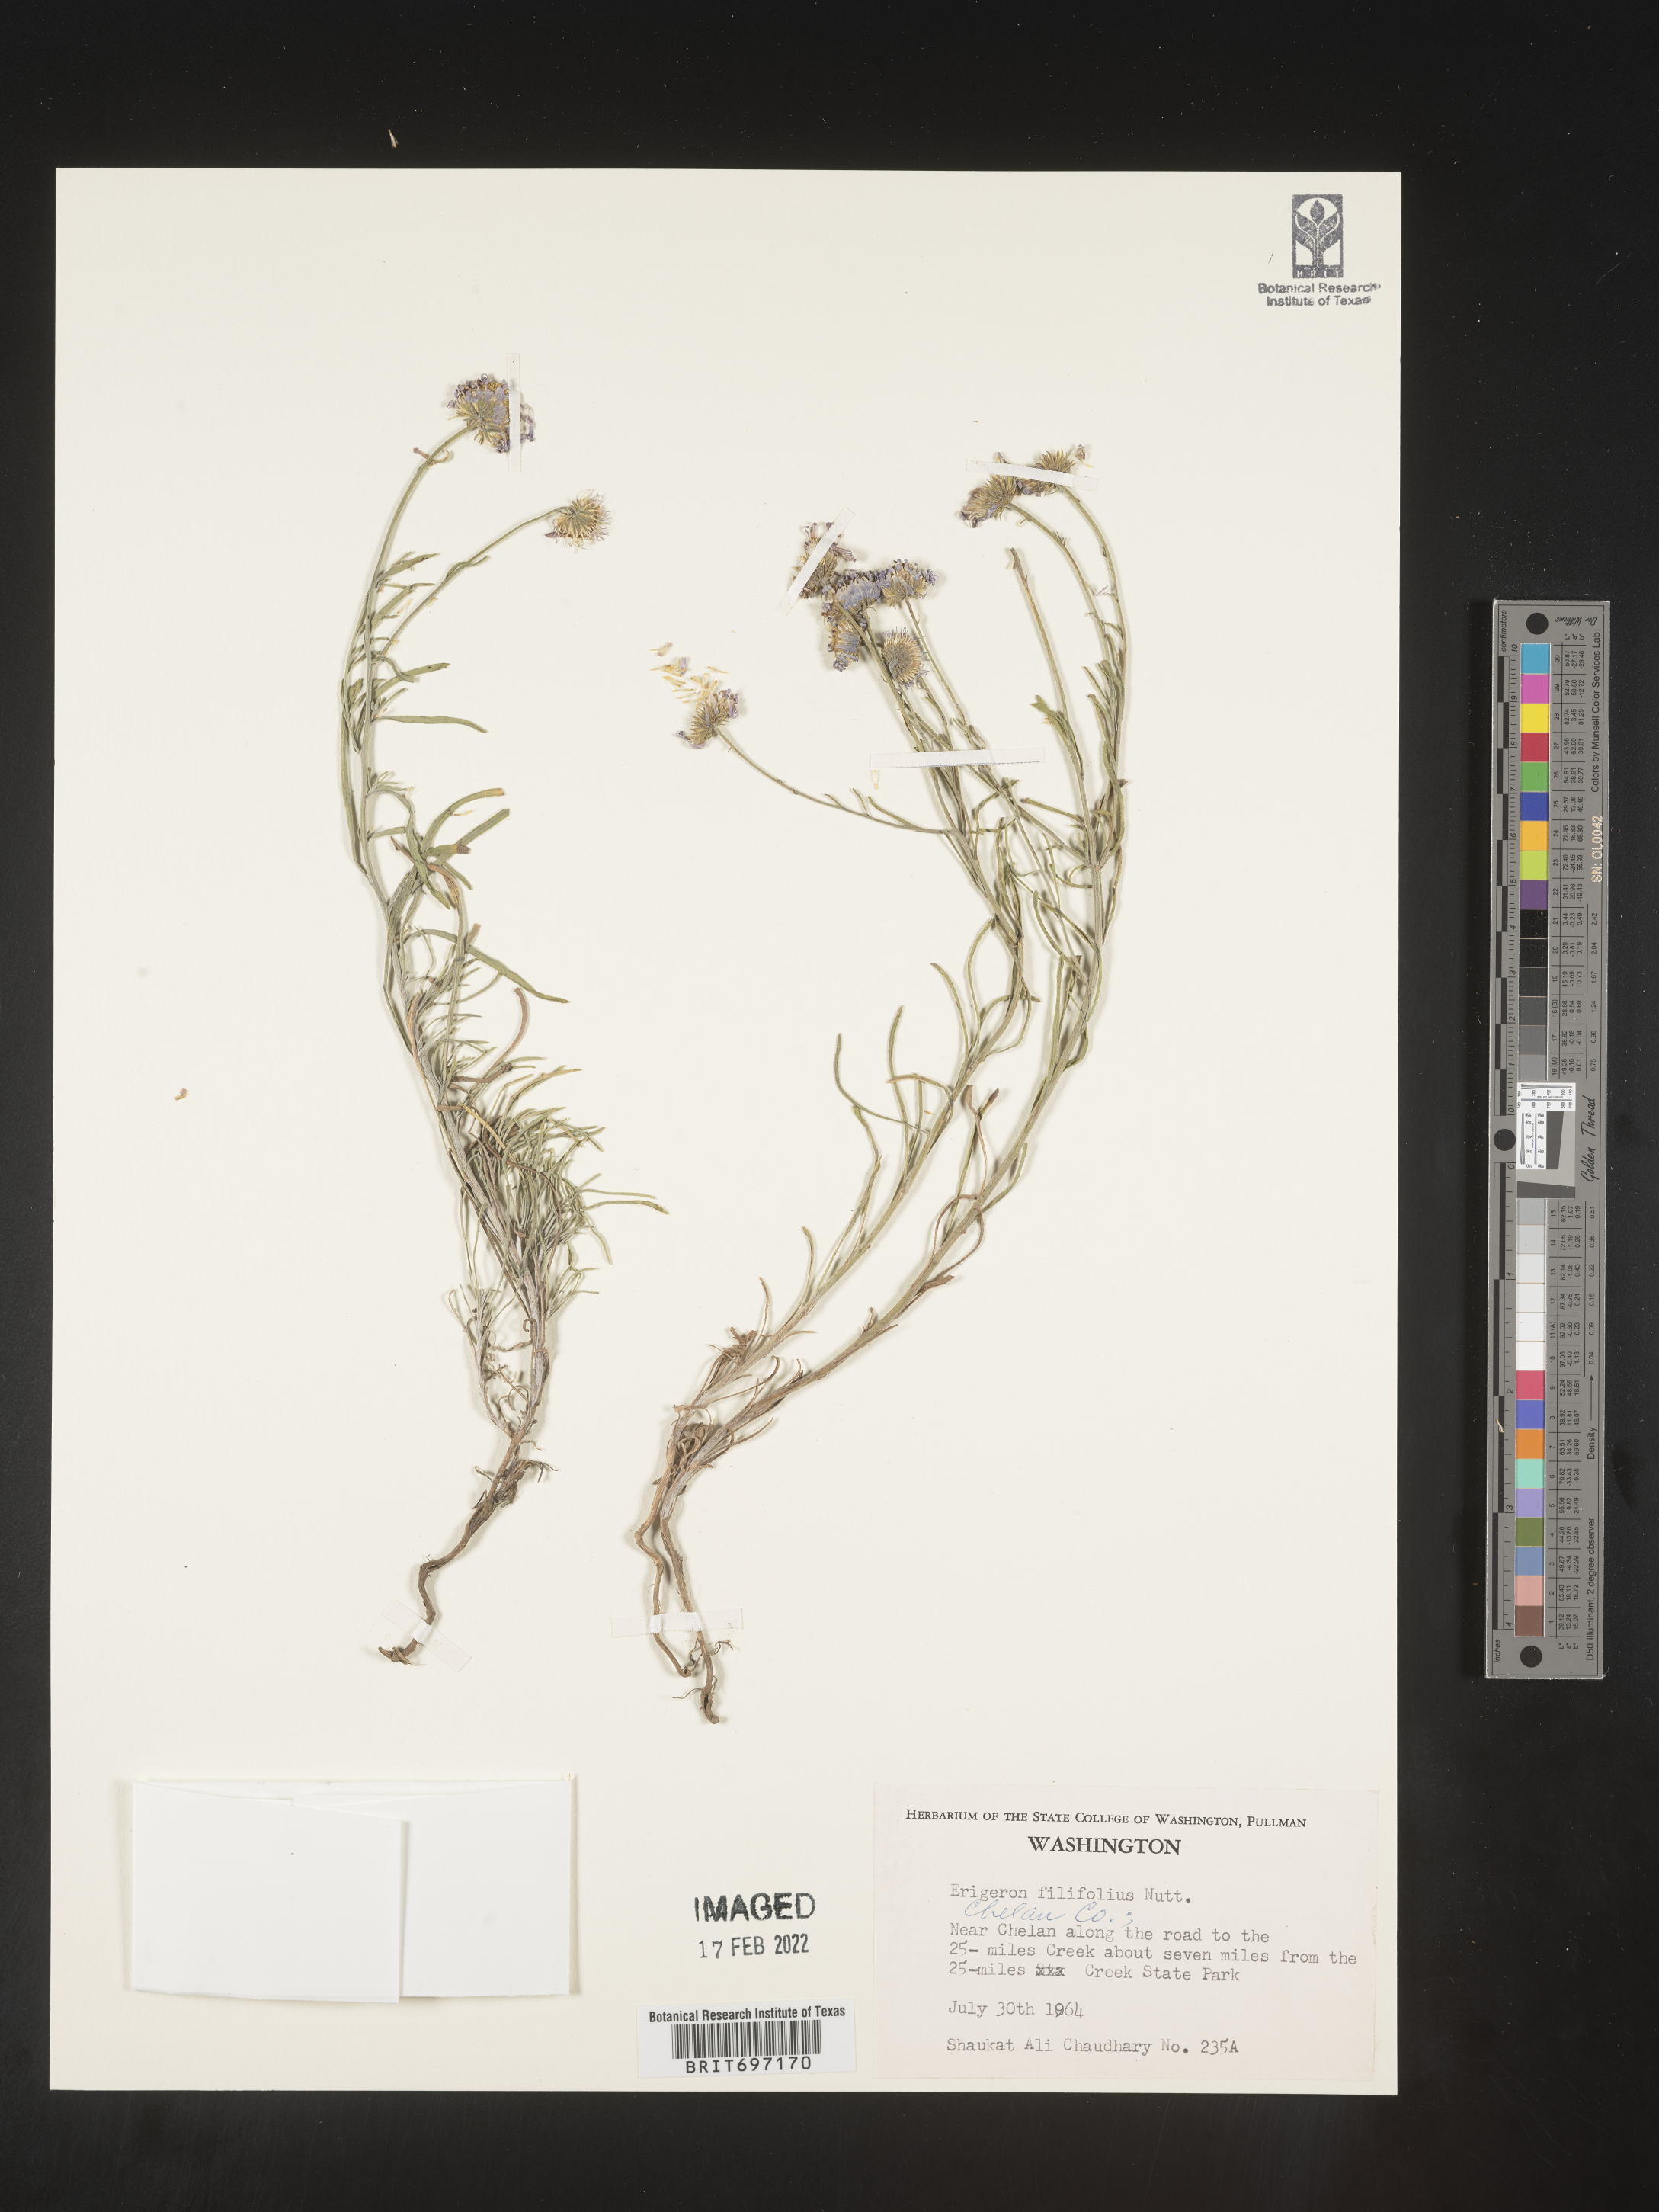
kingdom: Plantae
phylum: Tracheophyta
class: Magnoliopsida
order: Asterales
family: Asteraceae
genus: Erigeron
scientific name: Erigeron filifolius
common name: Threadleaf fleabane
